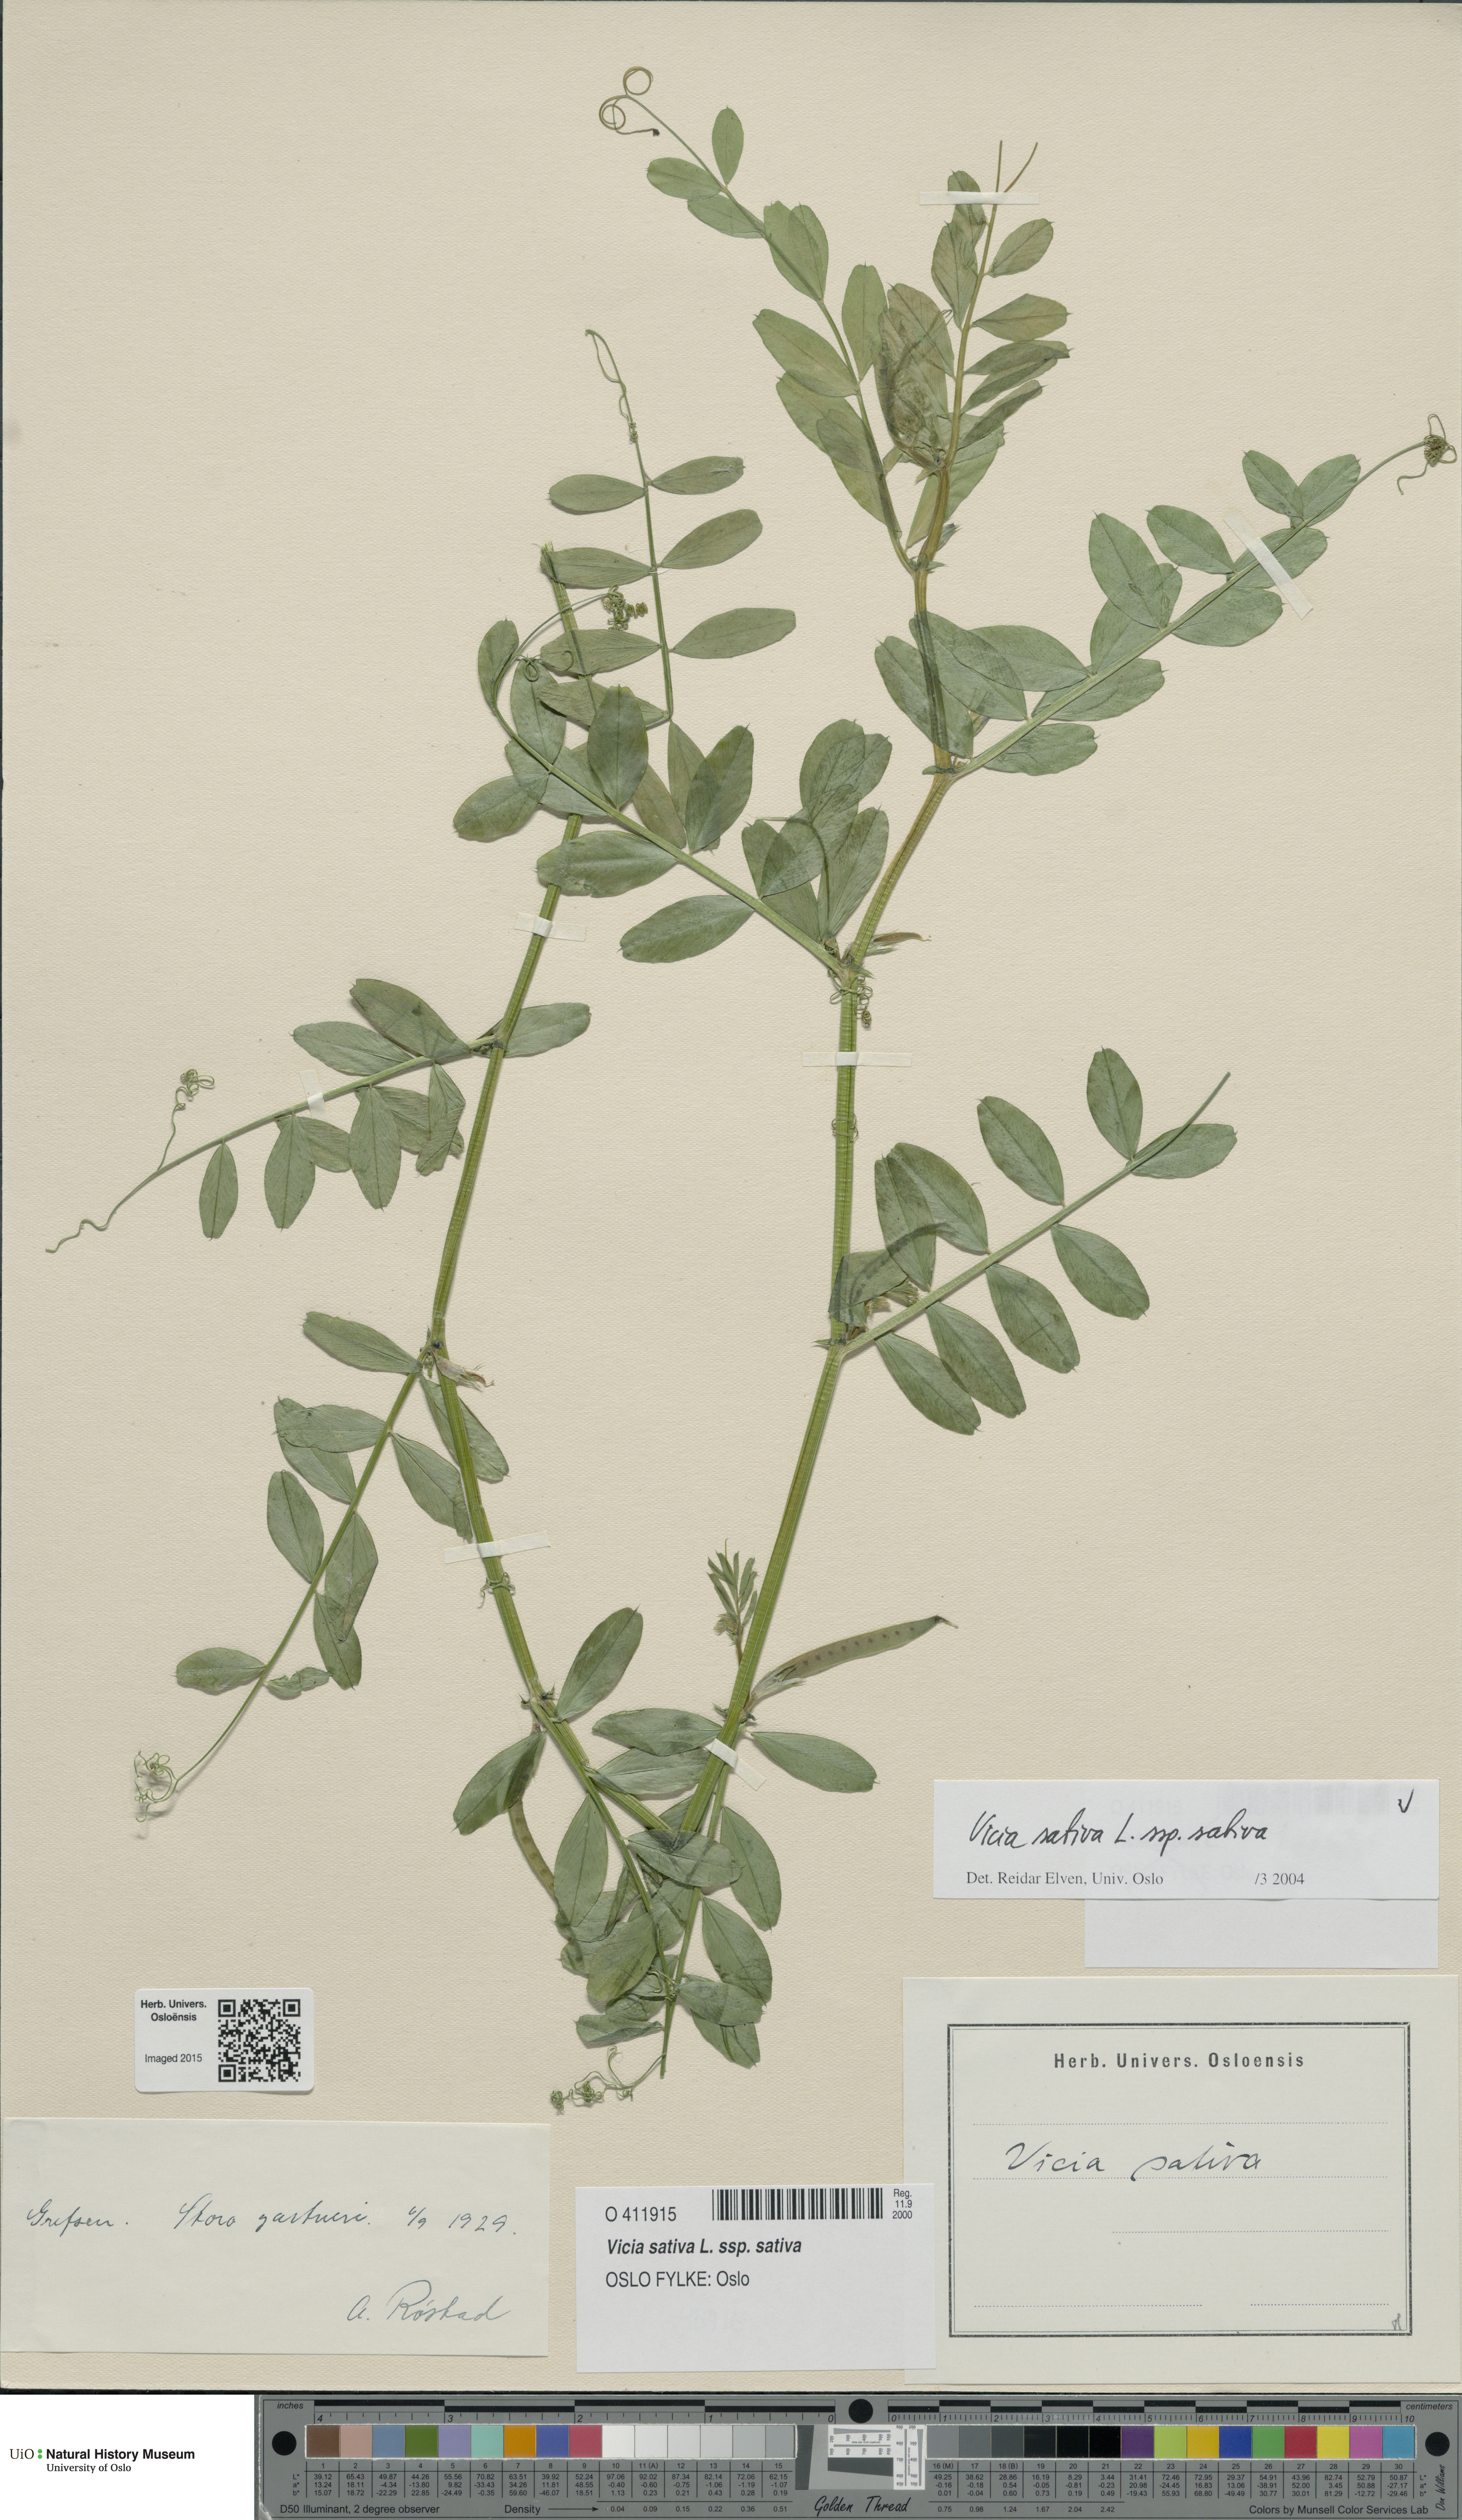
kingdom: Plantae
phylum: Tracheophyta
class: Magnoliopsida
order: Fabales
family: Fabaceae
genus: Vicia
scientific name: Vicia sativa
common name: Garden vetch
